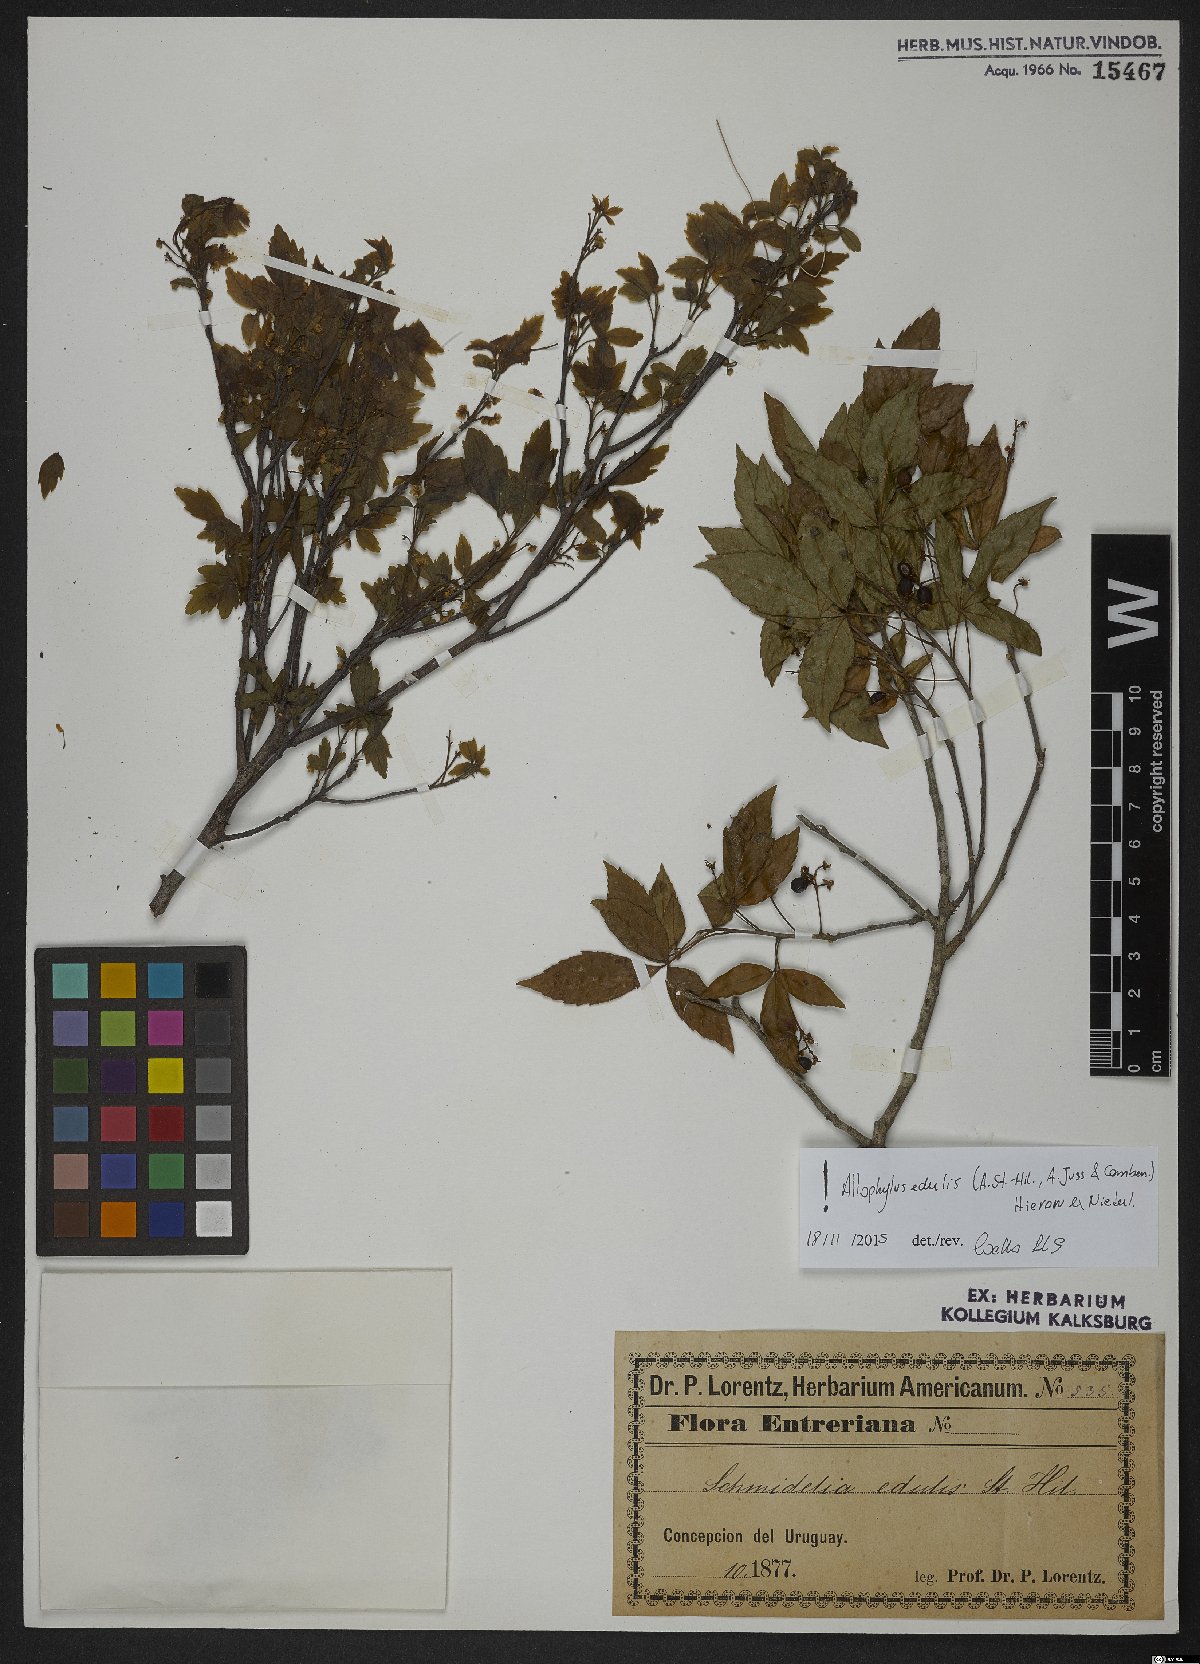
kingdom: Plantae
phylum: Tracheophyta
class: Magnoliopsida
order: Sapindales
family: Sapindaceae
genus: Allophylus
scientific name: Allophylus edulis
